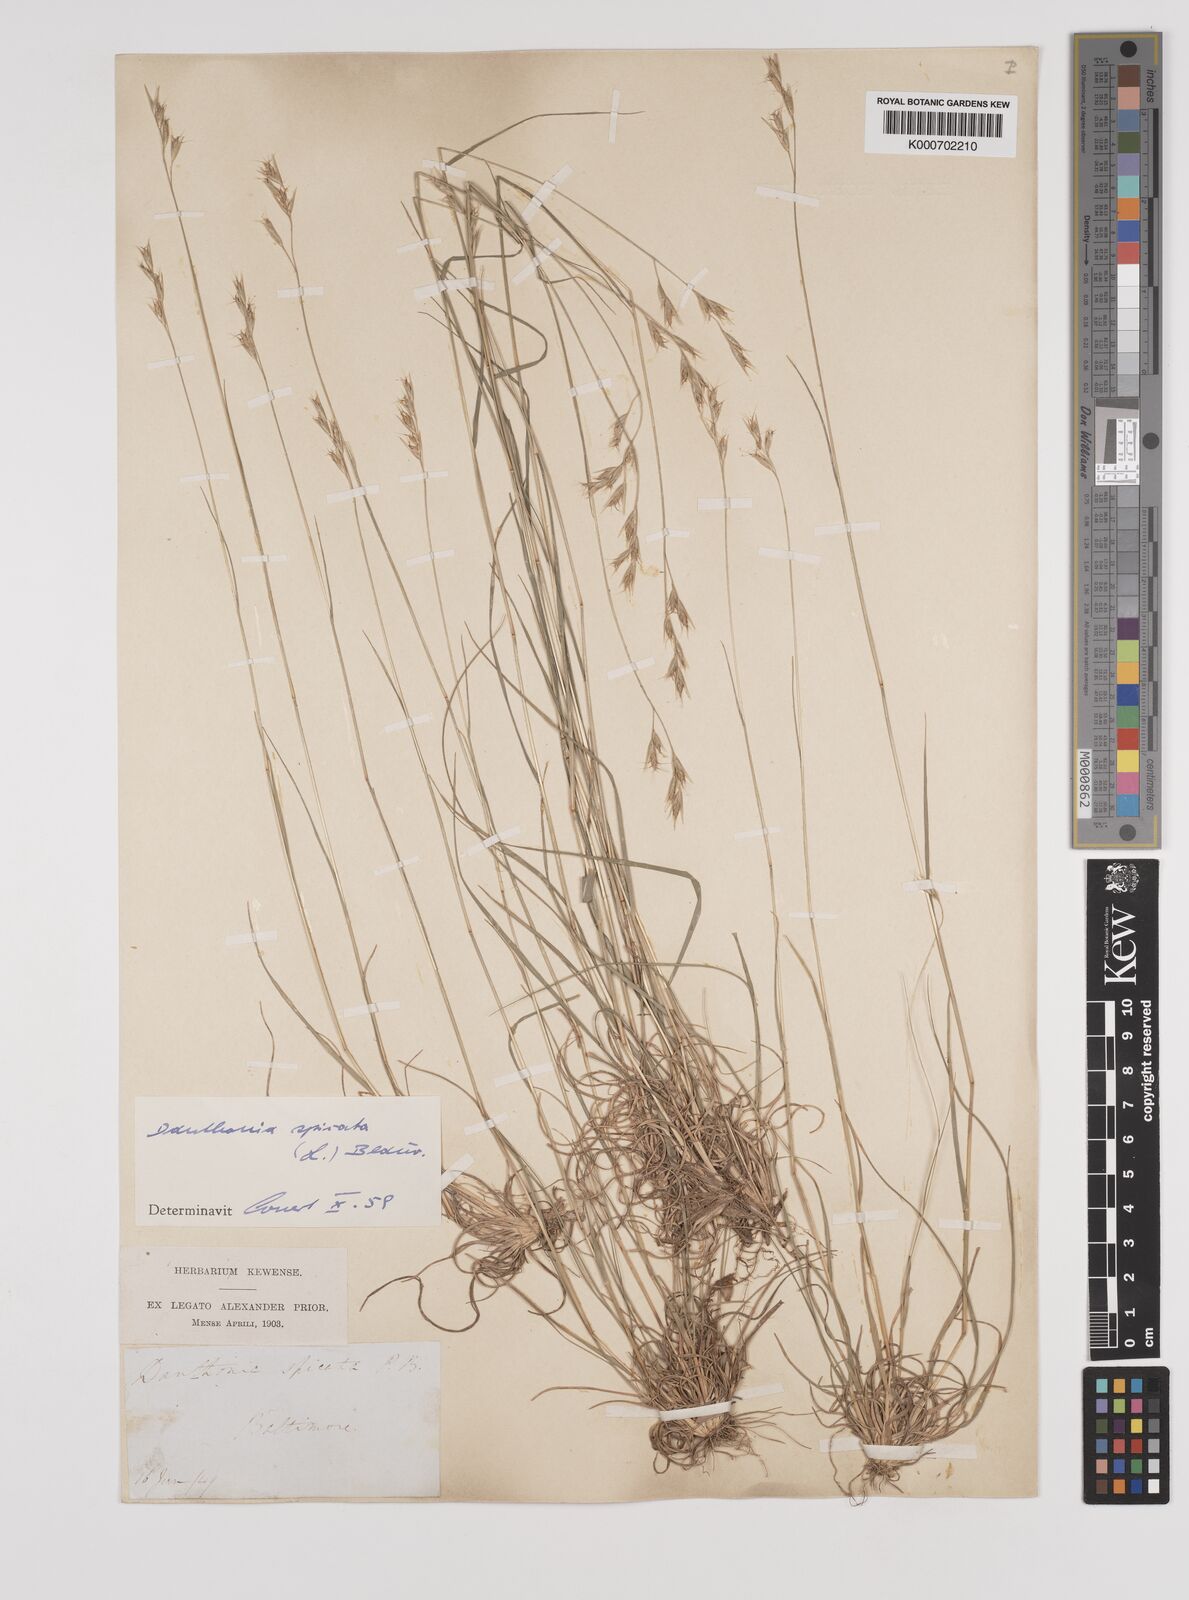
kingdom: Plantae
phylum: Tracheophyta
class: Liliopsida
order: Poales
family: Poaceae
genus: Danthonia
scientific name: Danthonia spicata
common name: Common wild oatgrass
